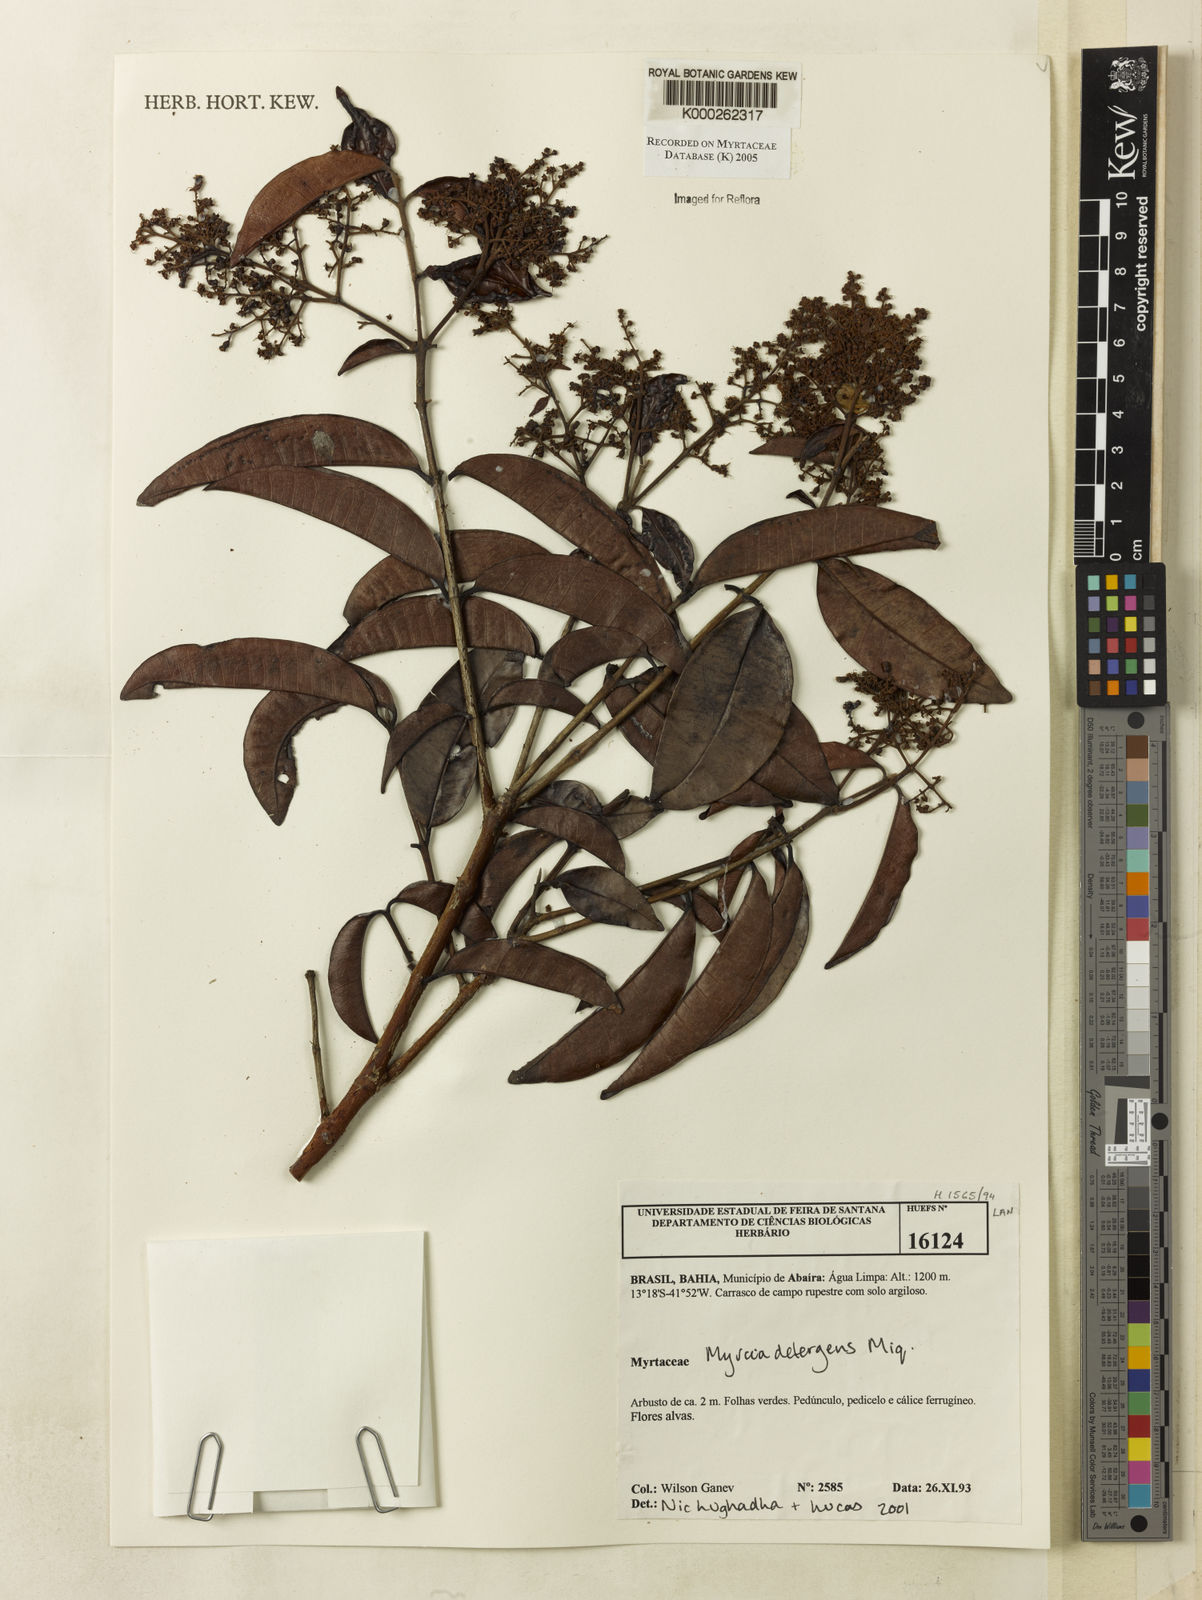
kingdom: Plantae
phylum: Tracheophyta
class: Magnoliopsida
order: Myrtales
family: Myrtaceae
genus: Myrcia
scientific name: Myrcia amazonica
